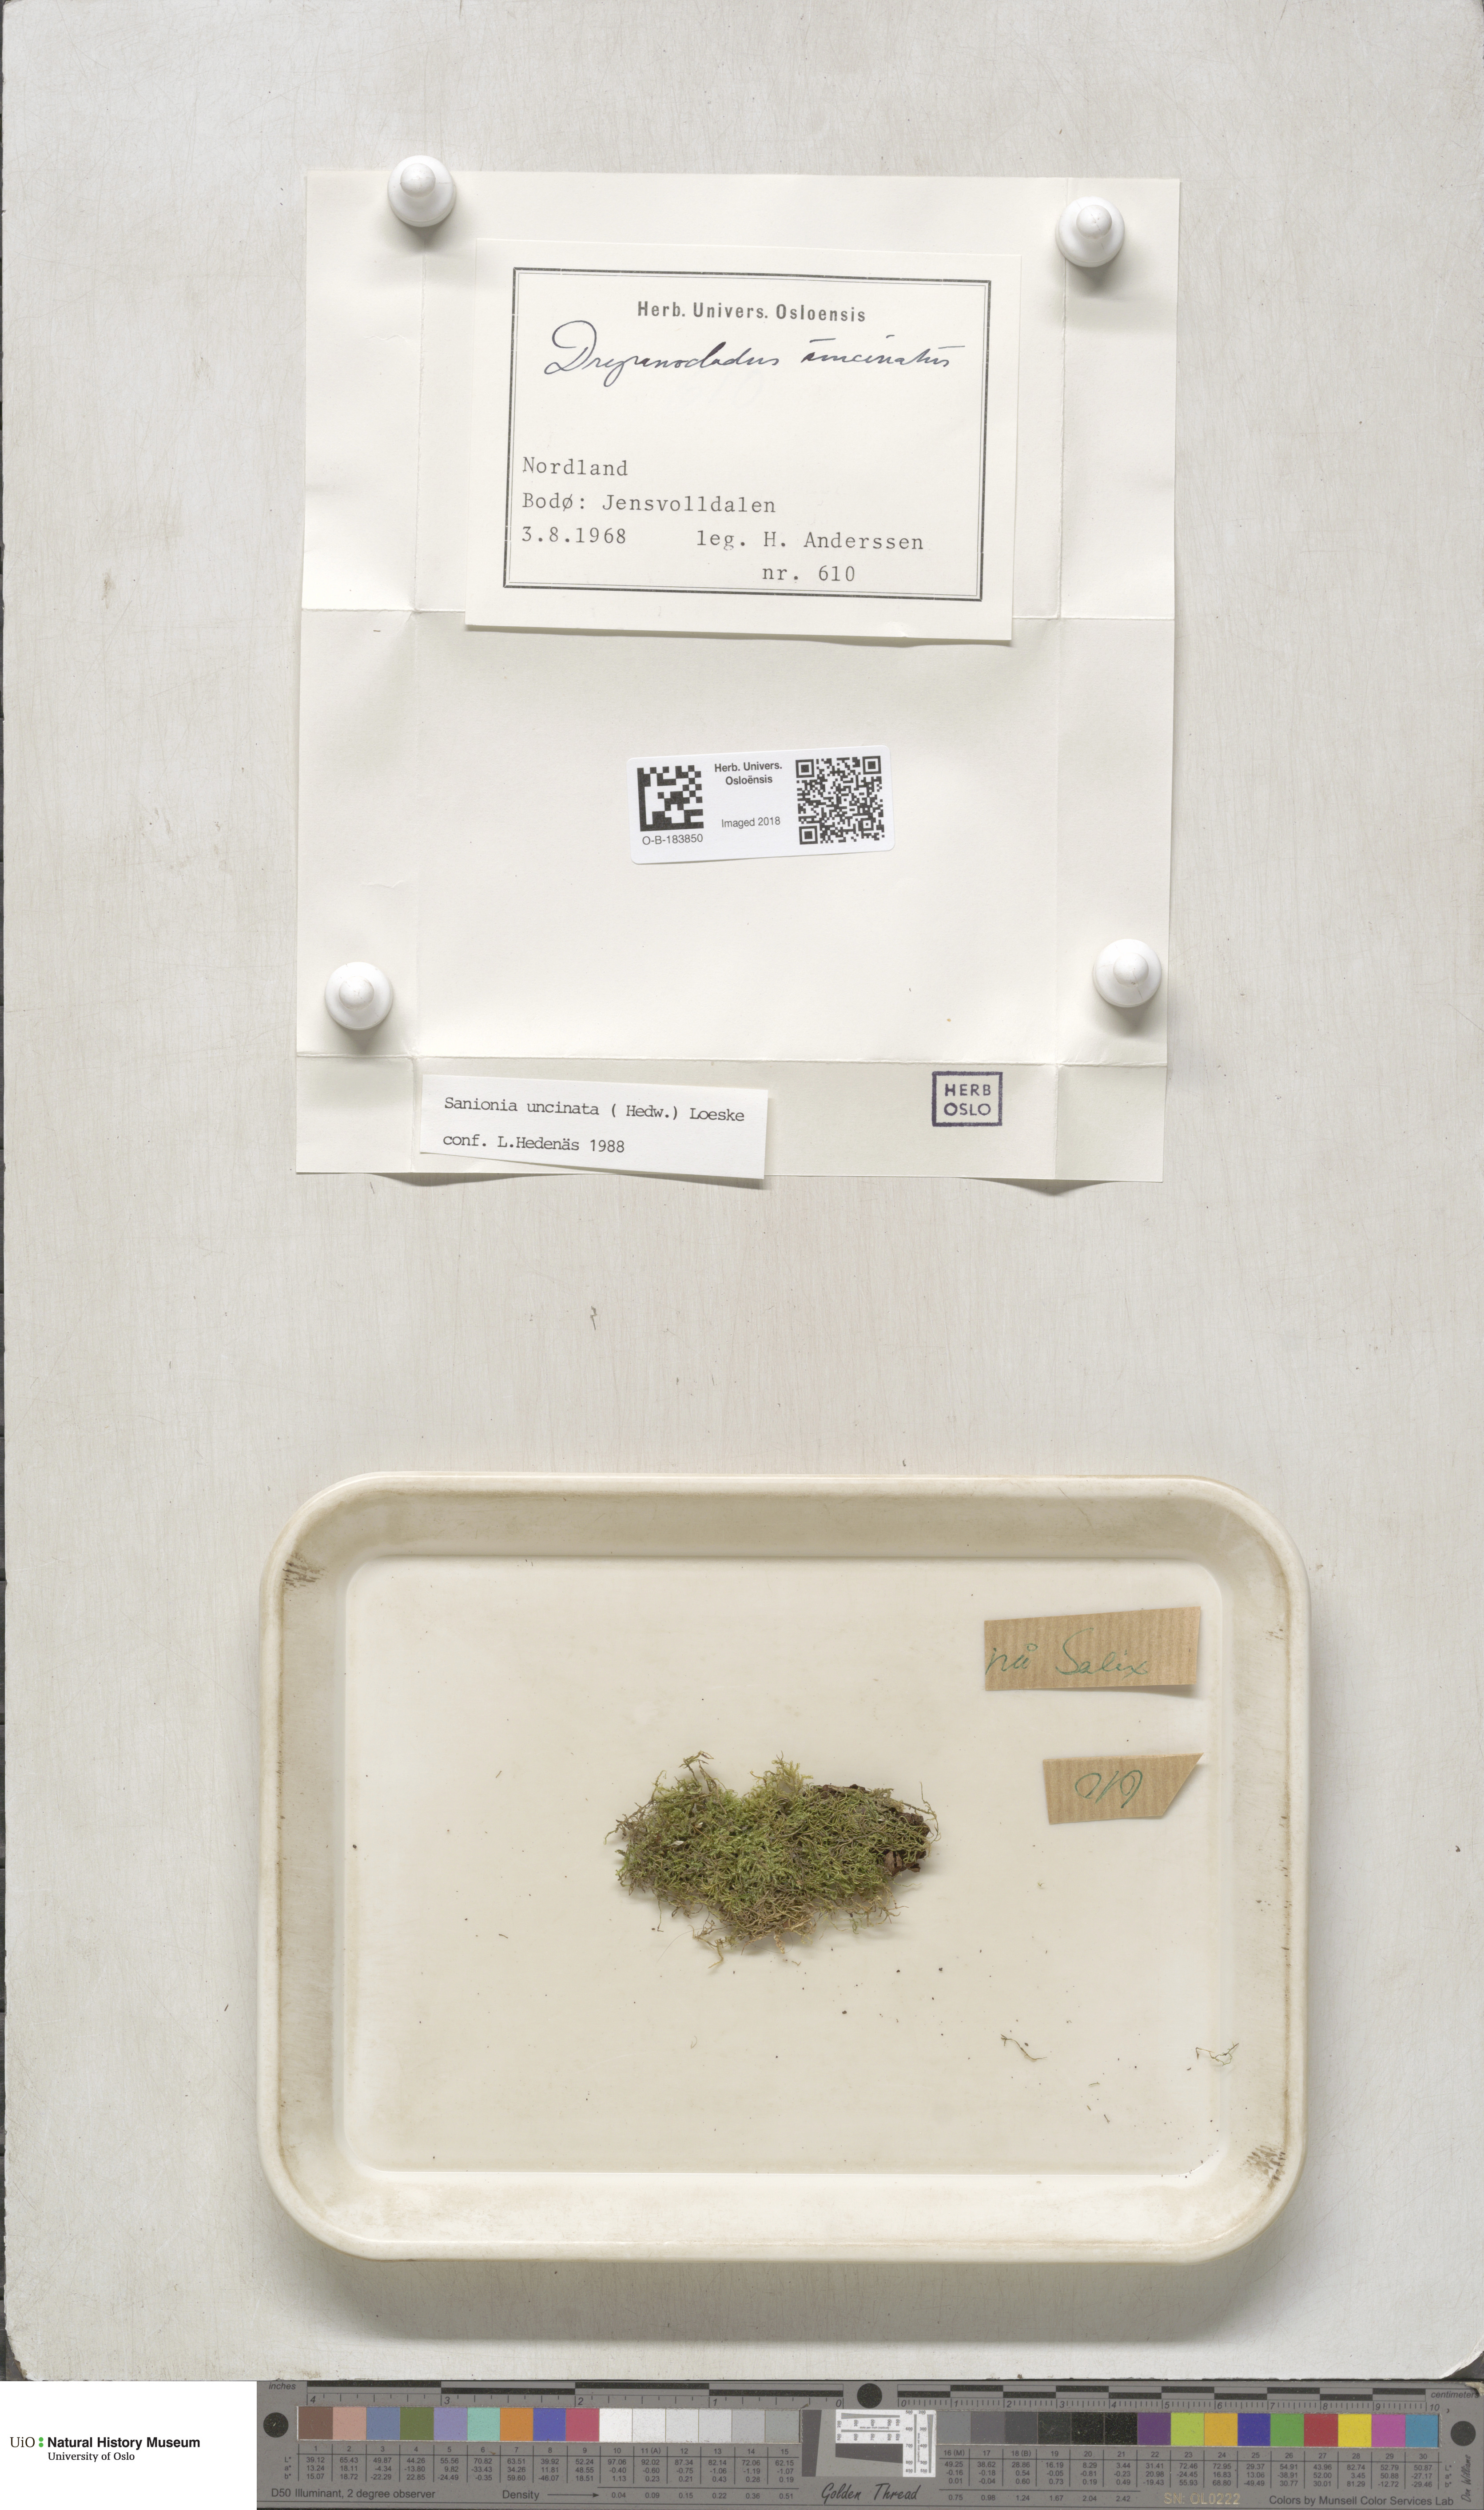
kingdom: Plantae
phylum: Bryophyta
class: Bryopsida
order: Hypnales
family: Scorpidiaceae
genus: Sanionia
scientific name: Sanionia uncinata
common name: Sickle moss
